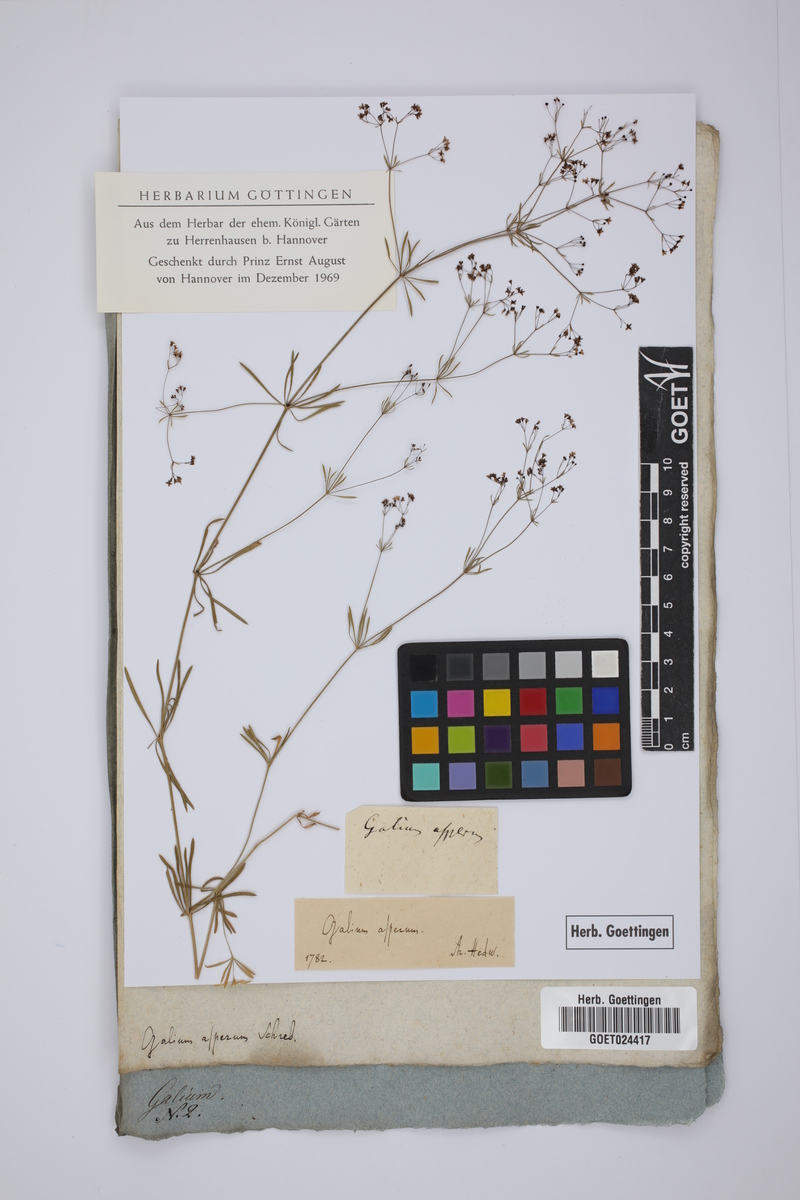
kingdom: Plantae
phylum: Tracheophyta
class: Magnoliopsida
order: Gentianales
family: Rubiaceae
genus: Galium
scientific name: Galium pumilum
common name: Slender bedstraw
